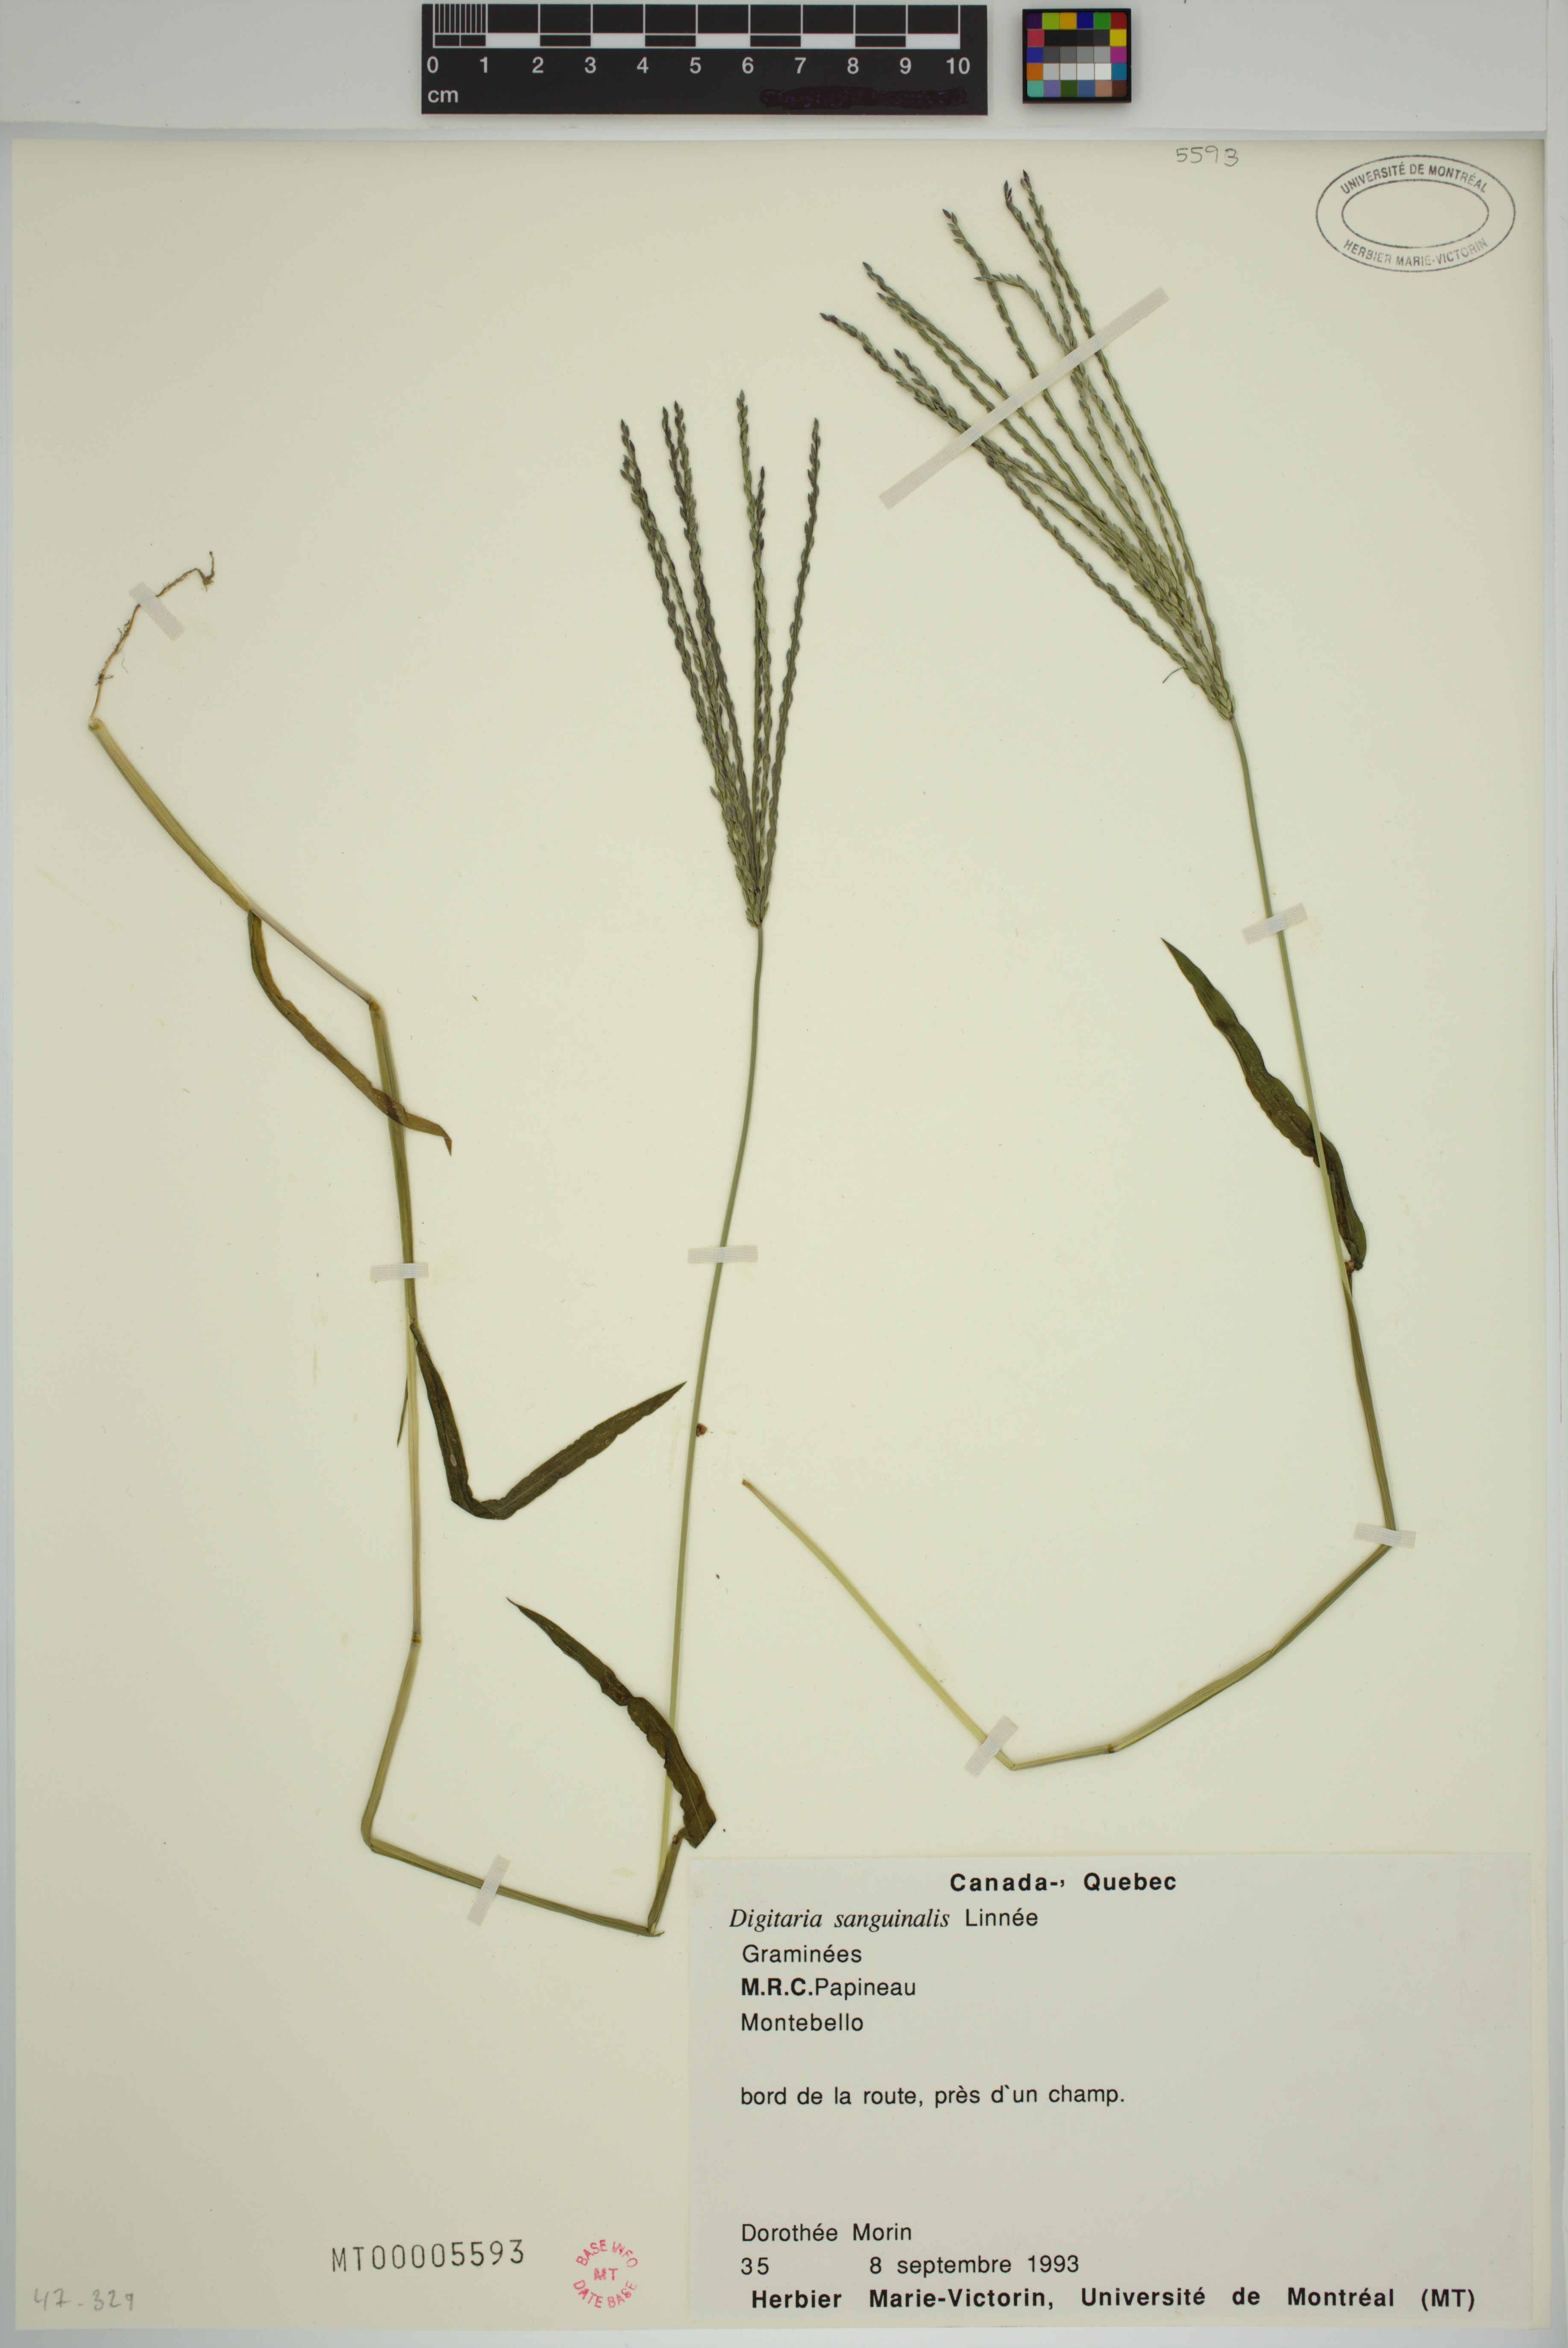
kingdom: Plantae
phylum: Tracheophyta
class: Liliopsida
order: Poales
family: Poaceae
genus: Digitaria
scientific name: Digitaria sanguinalis
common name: Hairy crabgrass
